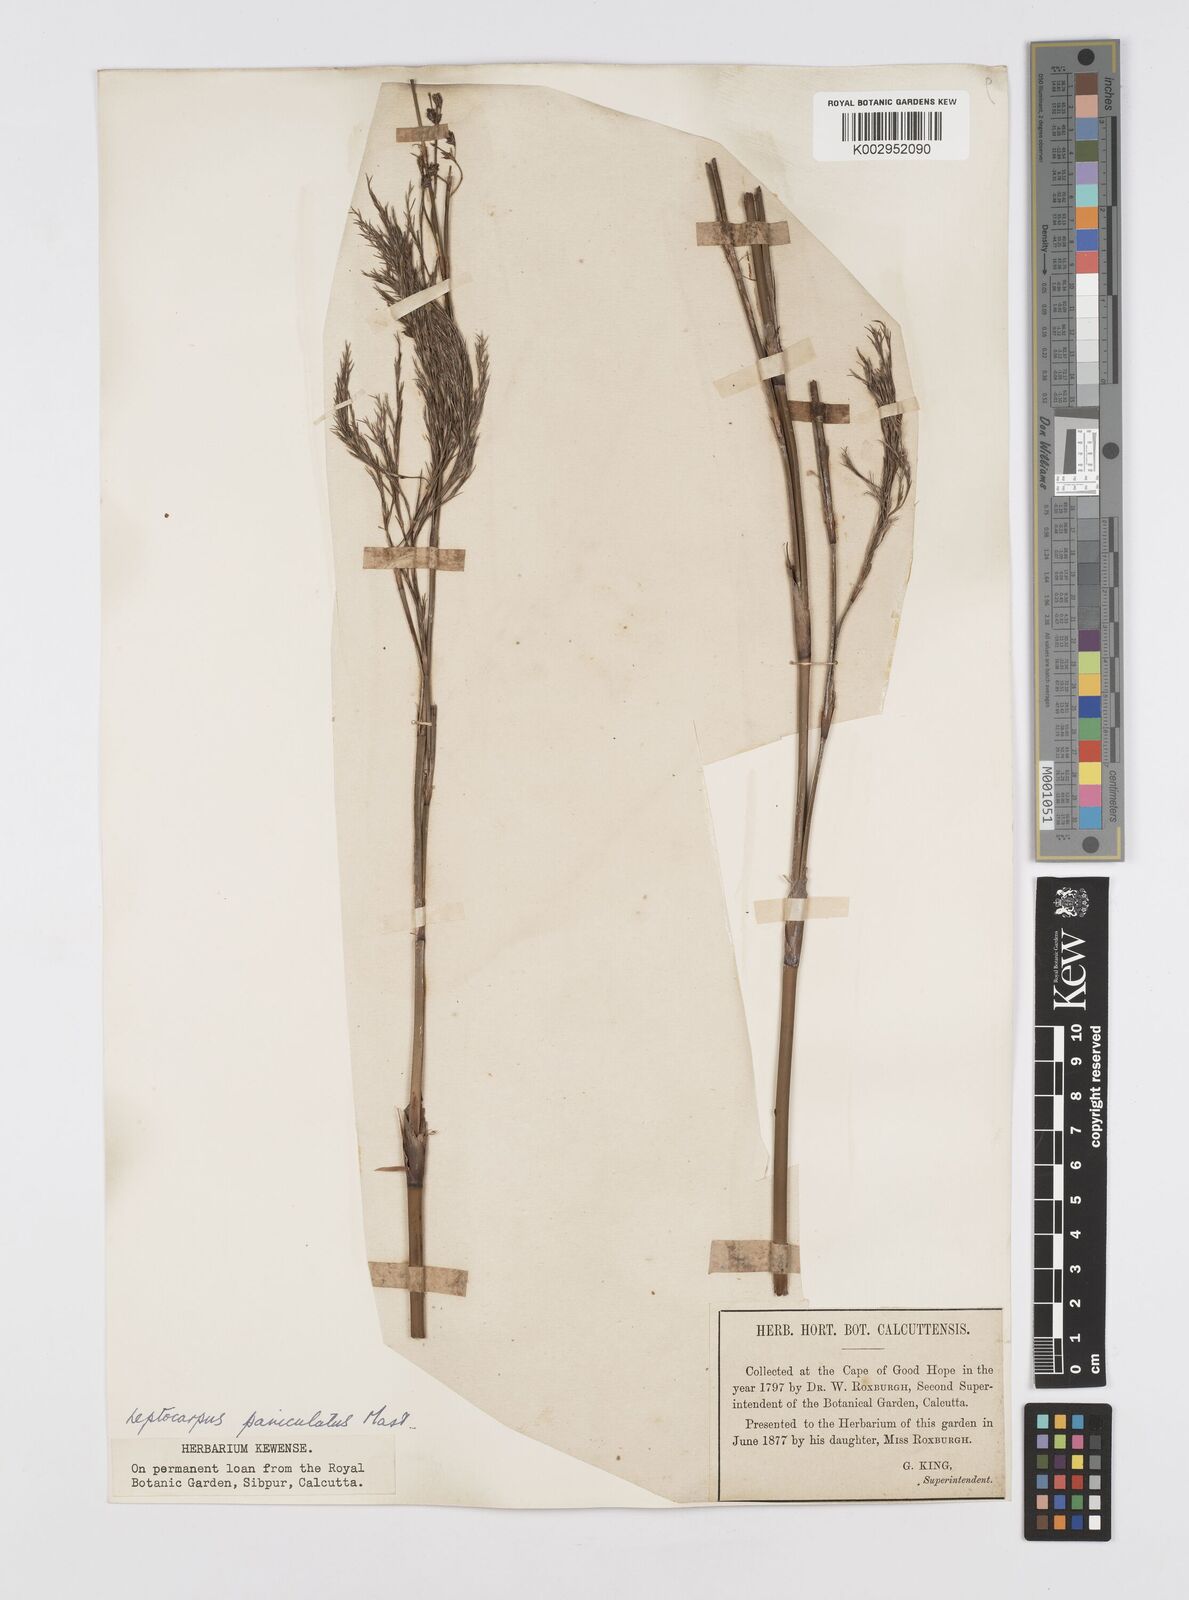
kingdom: Plantae
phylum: Tracheophyta
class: Liliopsida
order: Poales
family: Restionaceae
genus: Restio
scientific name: Restio paniculatus
